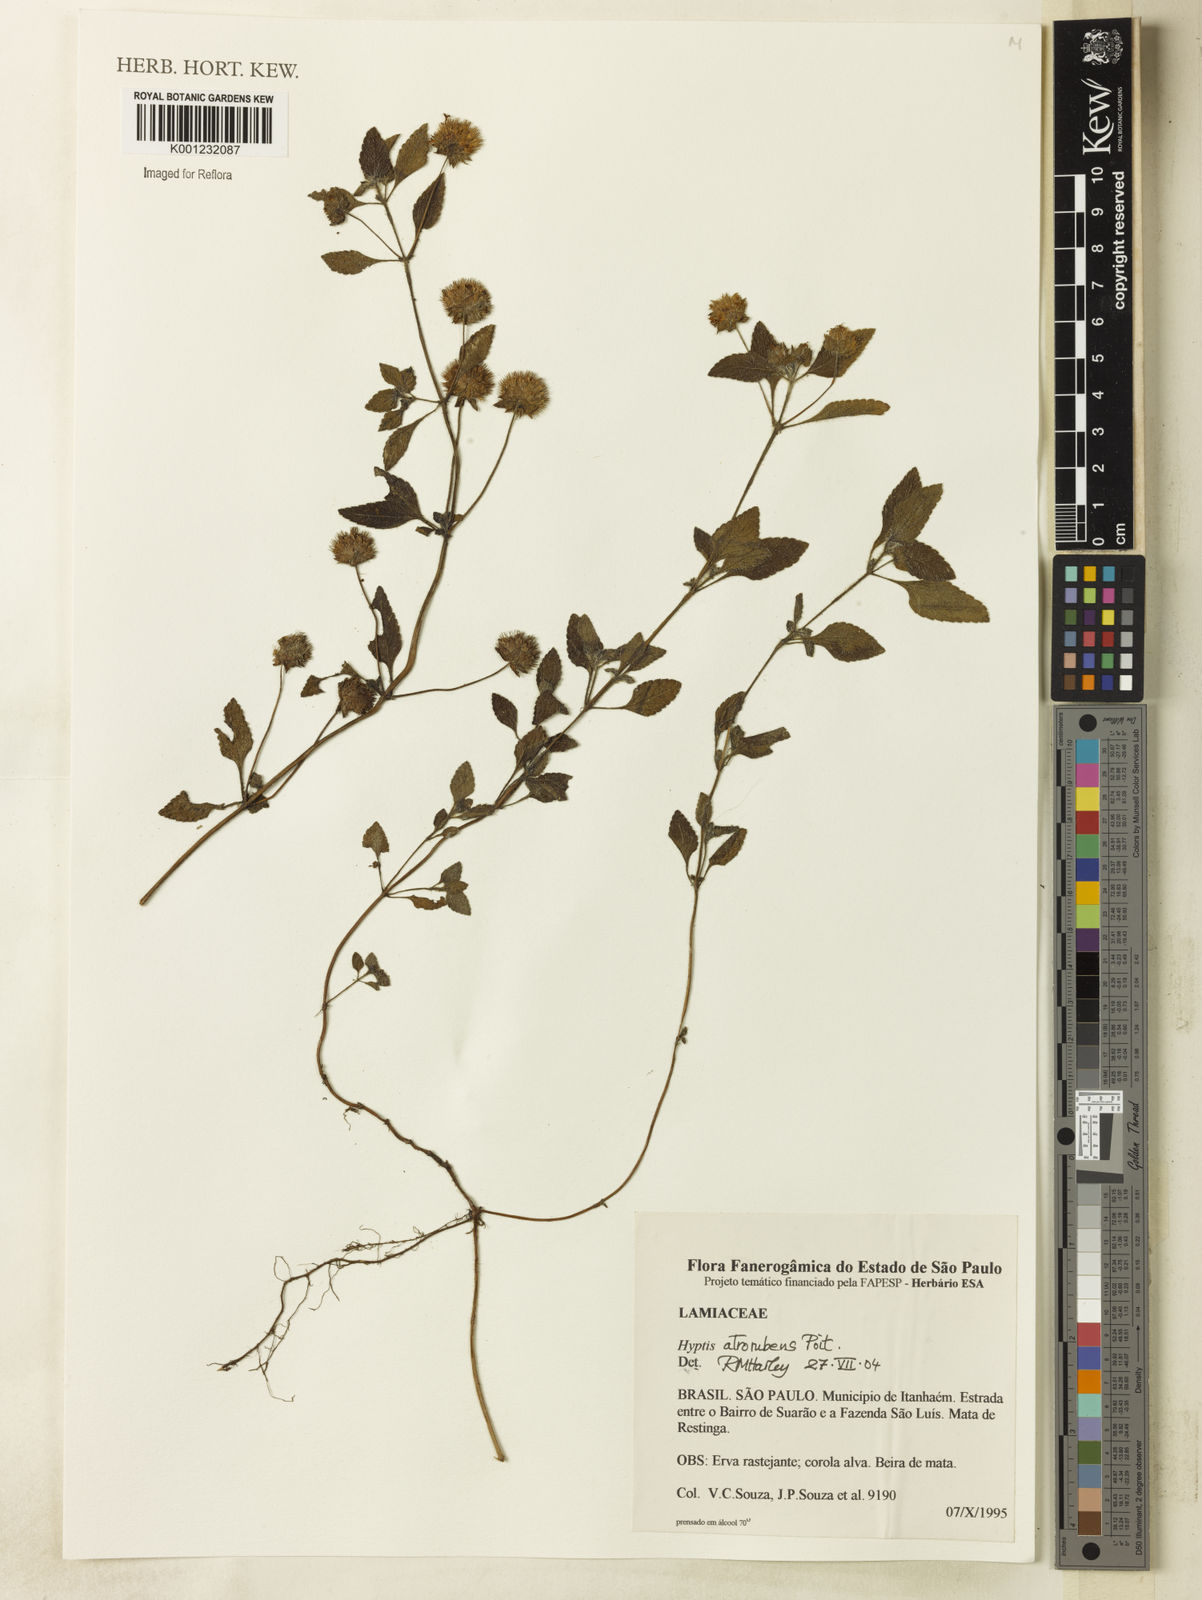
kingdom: Plantae
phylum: Tracheophyta
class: Magnoliopsida
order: Lamiales
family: Lamiaceae
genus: Hyptis
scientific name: Hyptis atrorubens
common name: Lanmant
